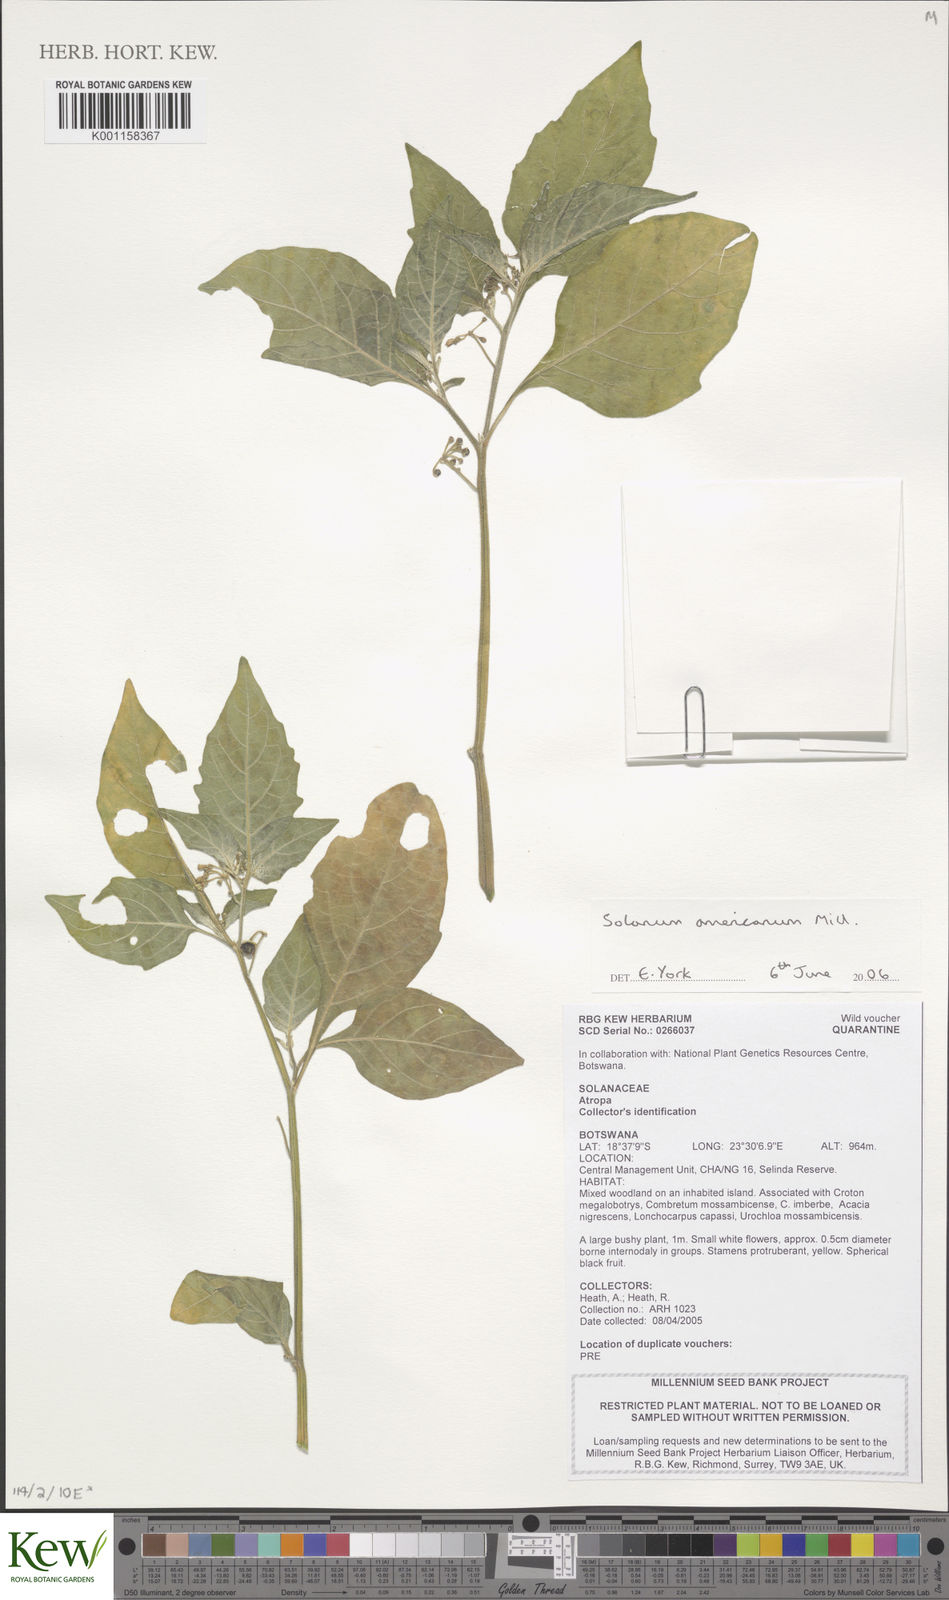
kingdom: Plantae
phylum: Tracheophyta
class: Magnoliopsida
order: Solanales
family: Solanaceae
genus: Solanum
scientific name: Solanum americanum
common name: American black nightshade
